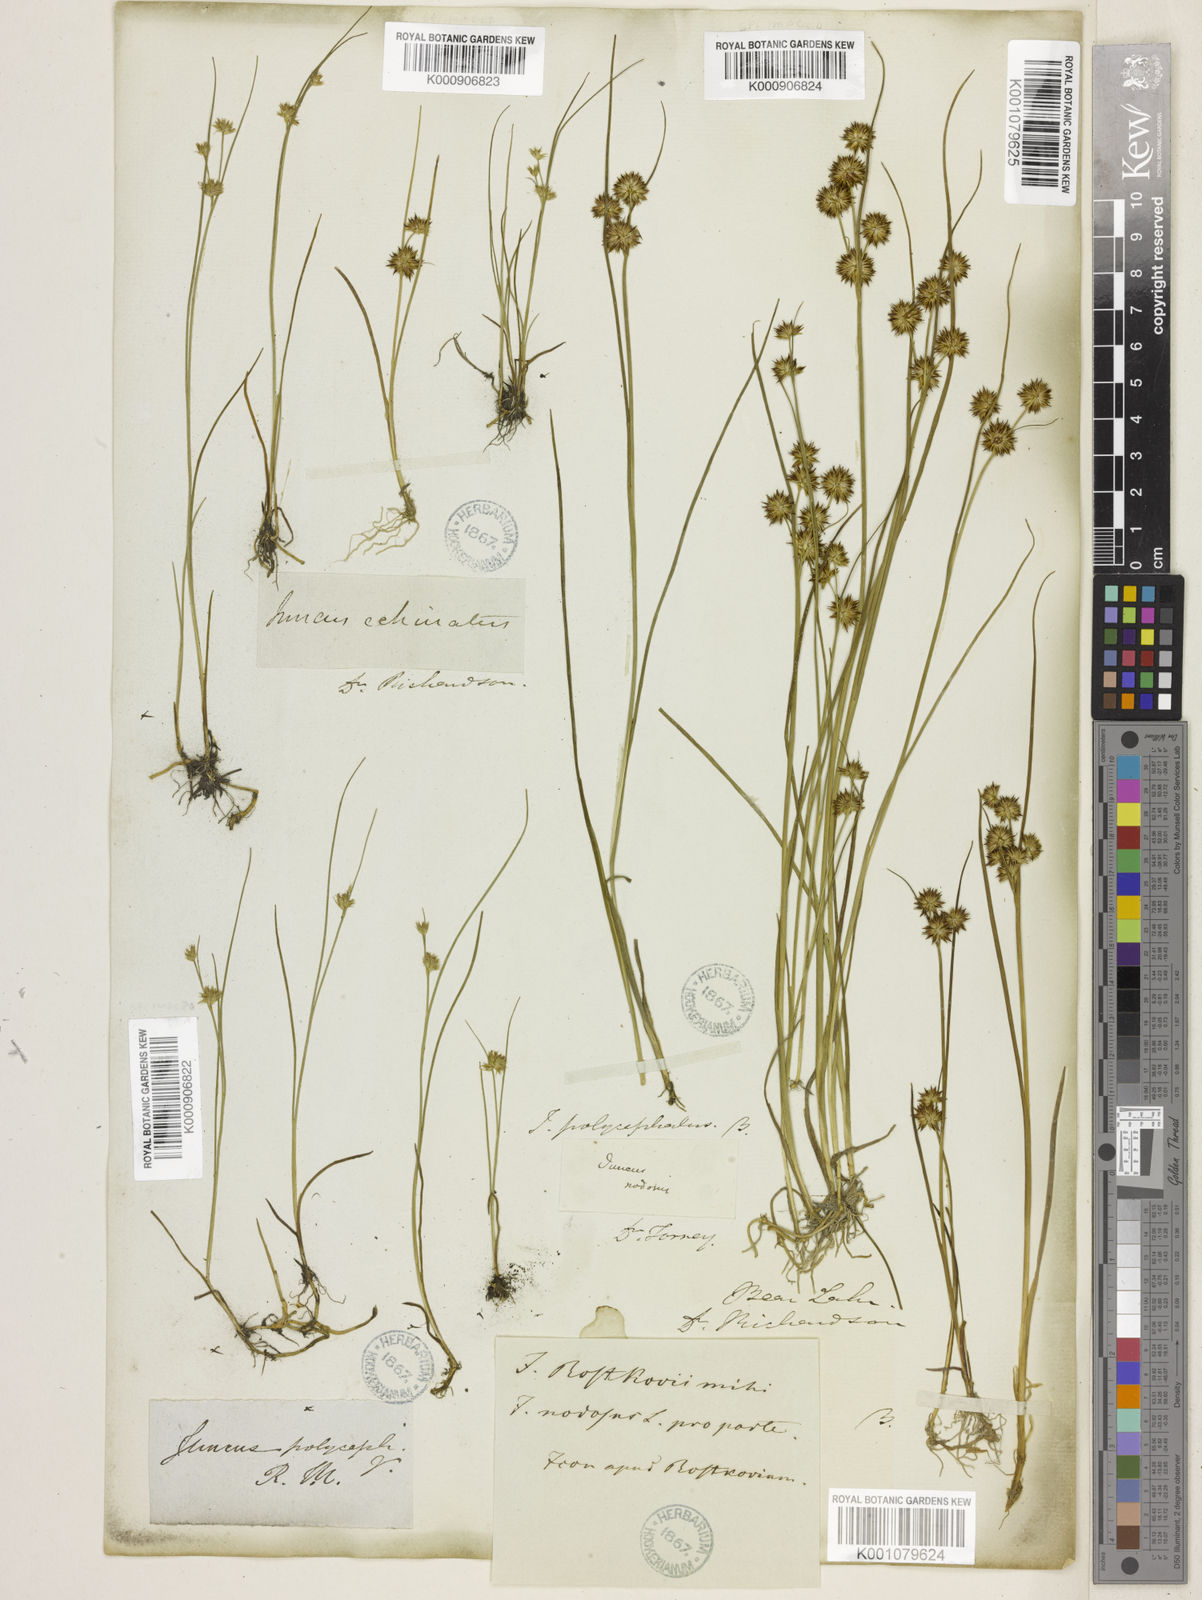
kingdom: Plantae
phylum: Tracheophyta
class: Liliopsida
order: Poales
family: Juncaceae
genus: Juncus
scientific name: Juncus nodosus
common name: Knotted rush
